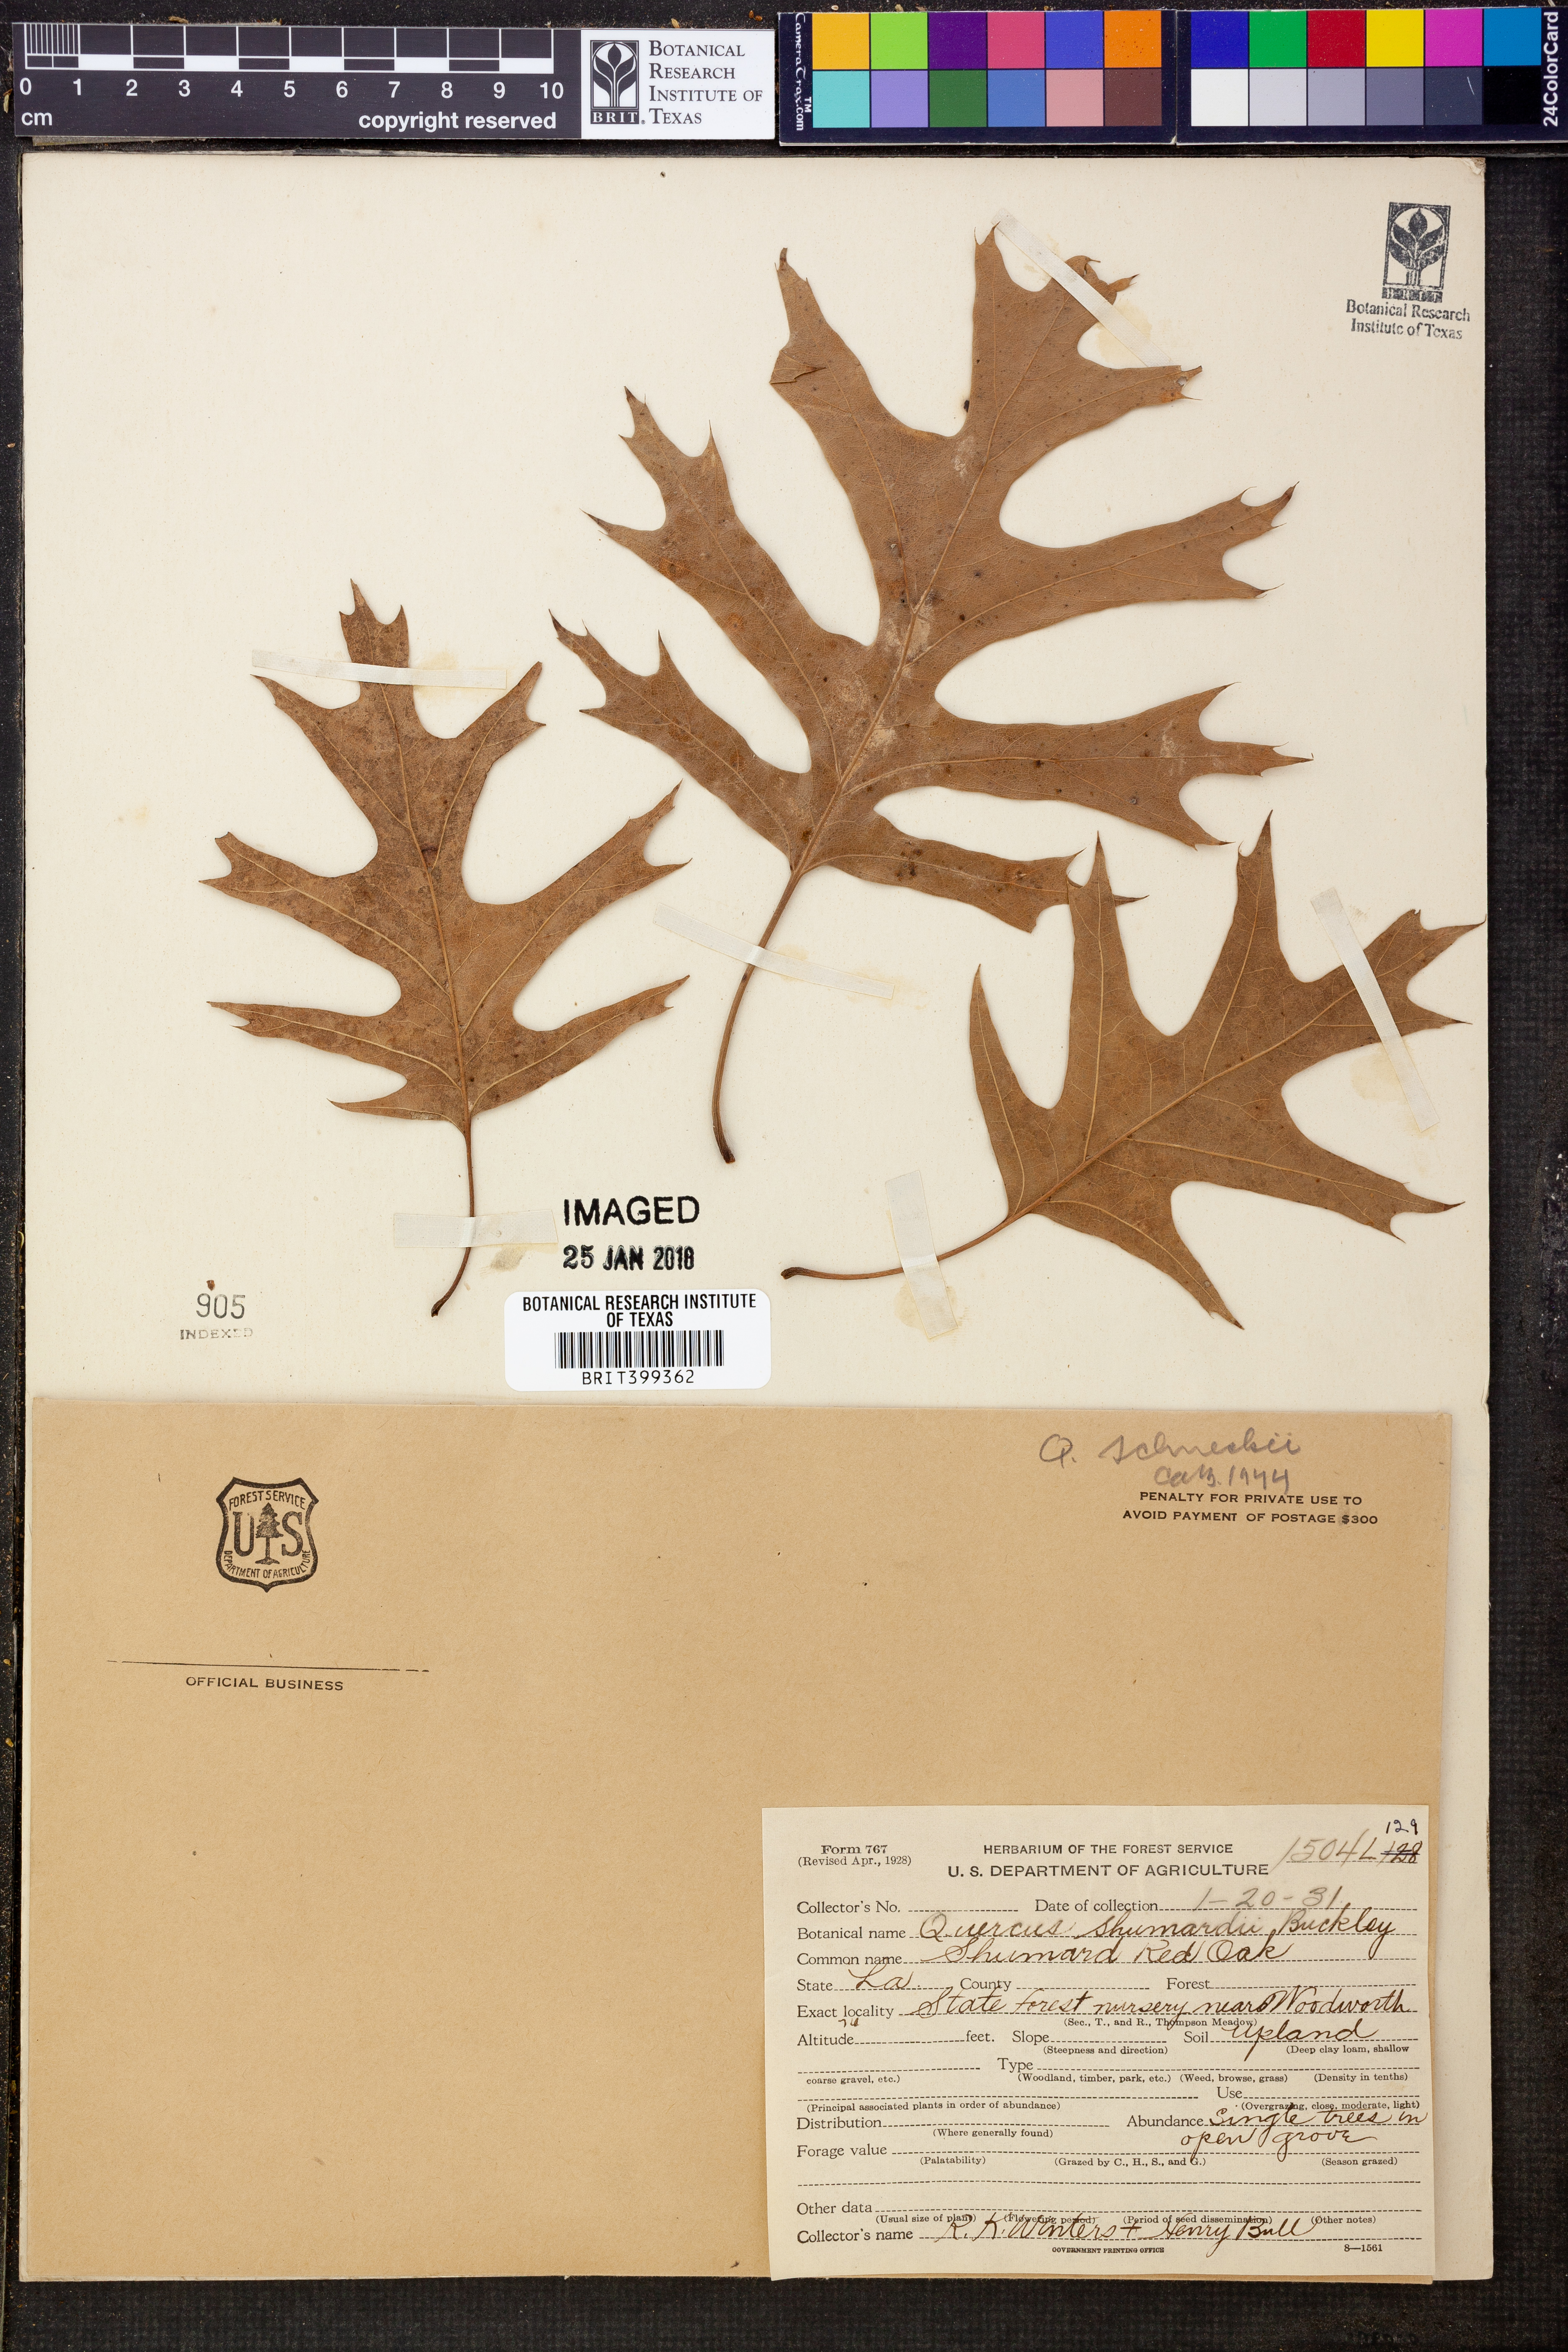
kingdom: Plantae
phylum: Tracheophyta
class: Magnoliopsida
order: Fagales
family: Fagaceae
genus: Quercus
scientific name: Quercus shumardii
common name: Shumard oak
